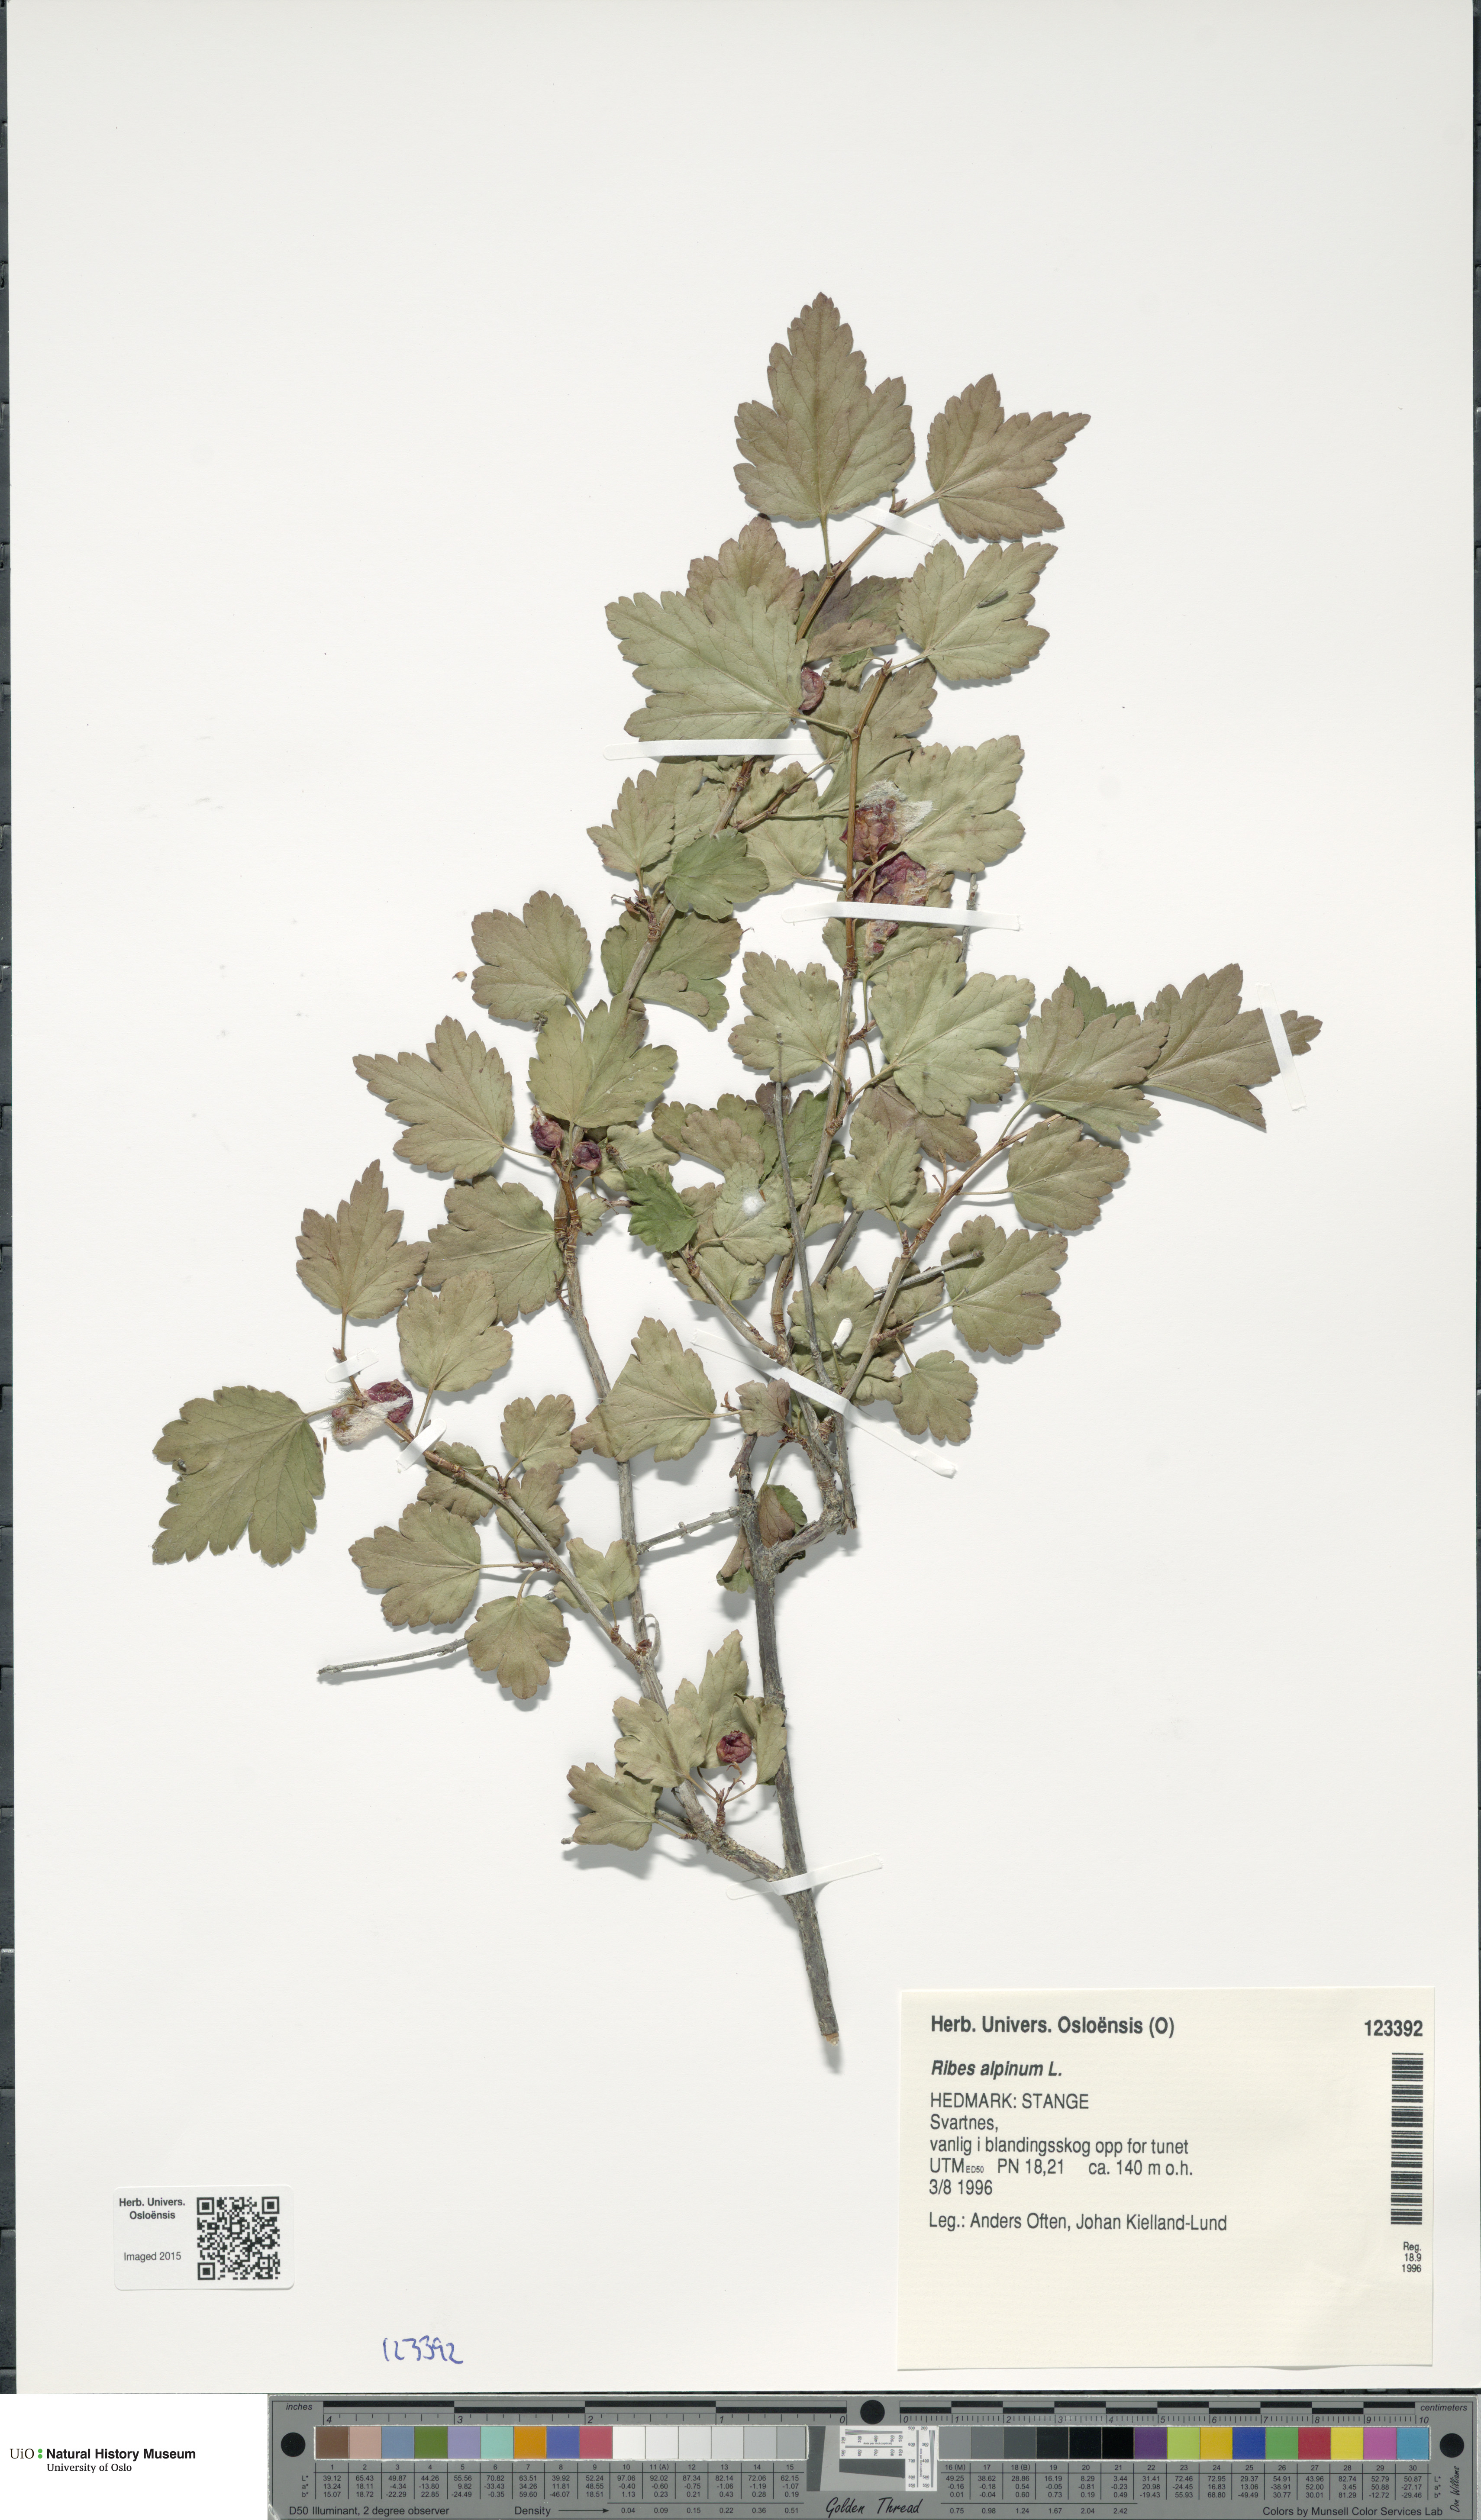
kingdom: Plantae
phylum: Tracheophyta
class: Magnoliopsida
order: Saxifragales
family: Grossulariaceae
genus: Ribes
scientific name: Ribes alpinum
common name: Alpine currant
